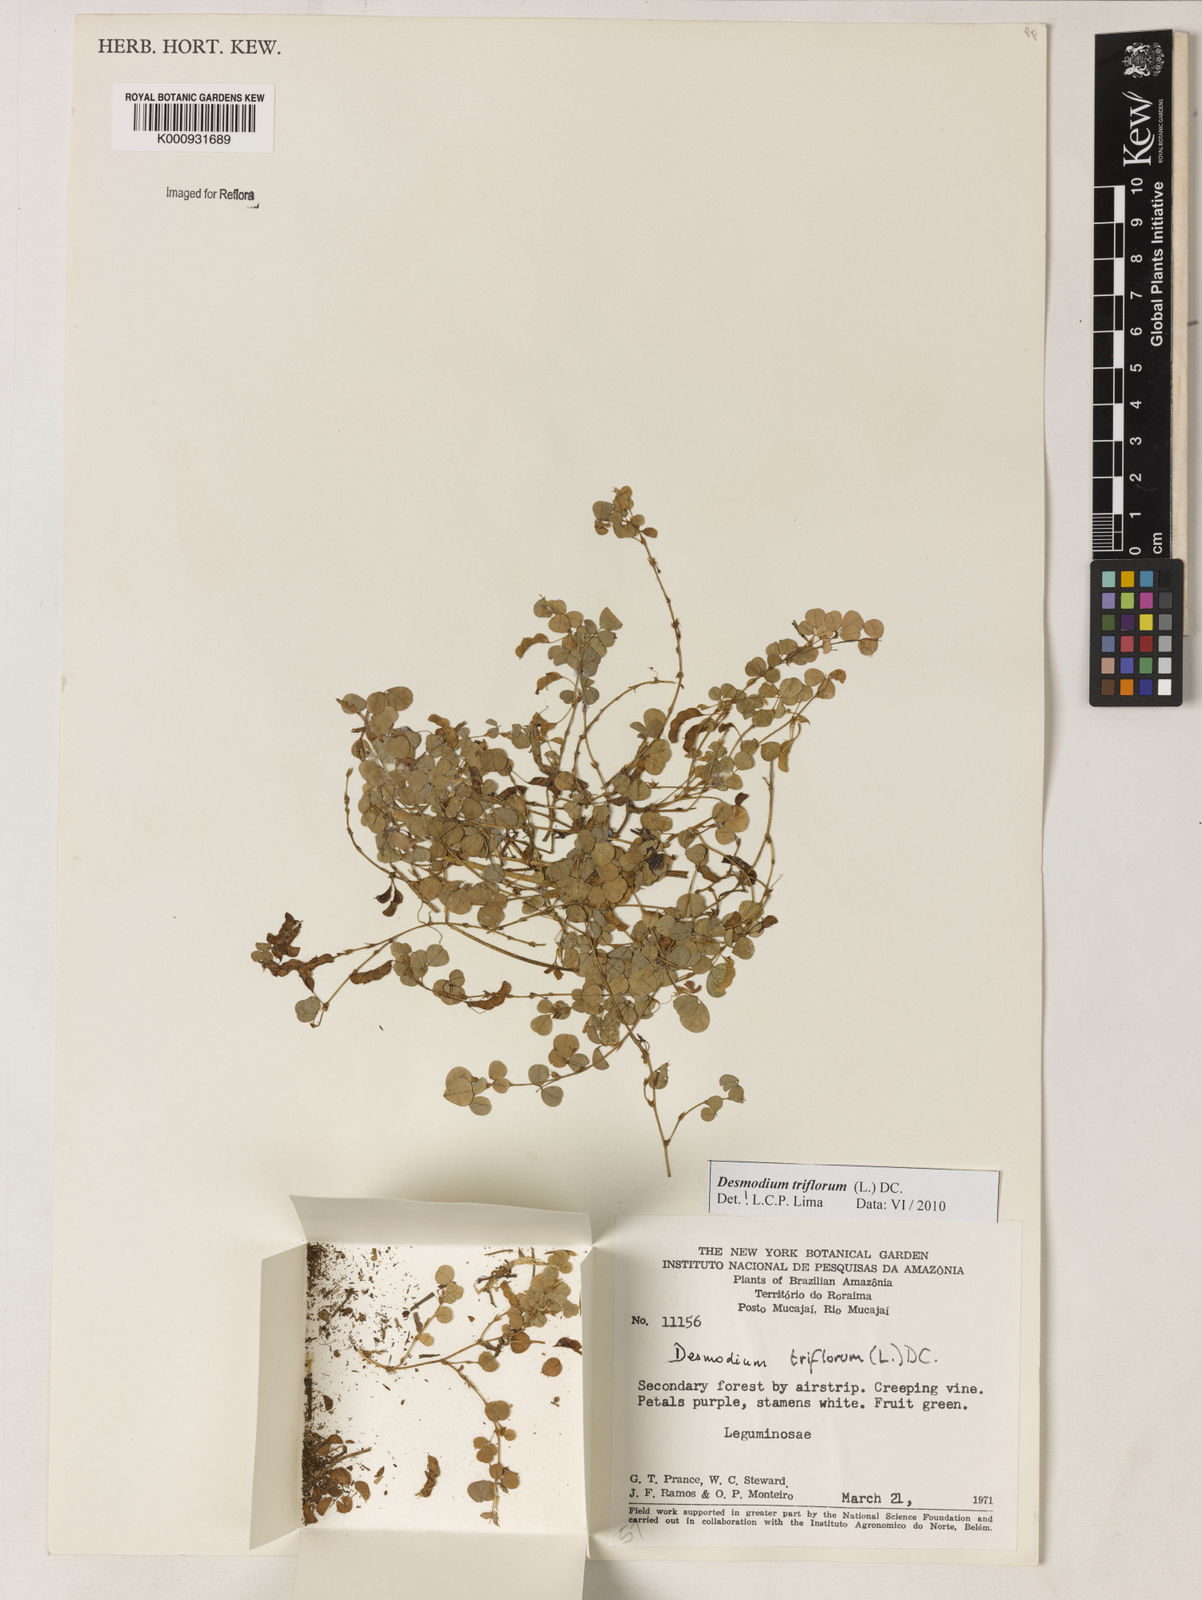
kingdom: Plantae
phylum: Tracheophyta
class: Magnoliopsida
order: Fabales
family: Fabaceae
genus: Grona
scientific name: Grona triflora
